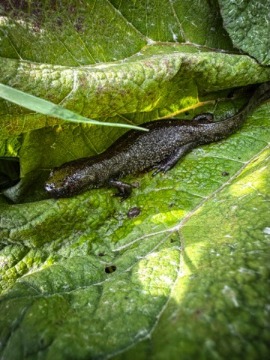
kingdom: Animalia
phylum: Chordata
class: Amphibia
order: Caudata
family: Salamandridae
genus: Triturus
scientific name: Triturus cristatus
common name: Stor vandsalamander
